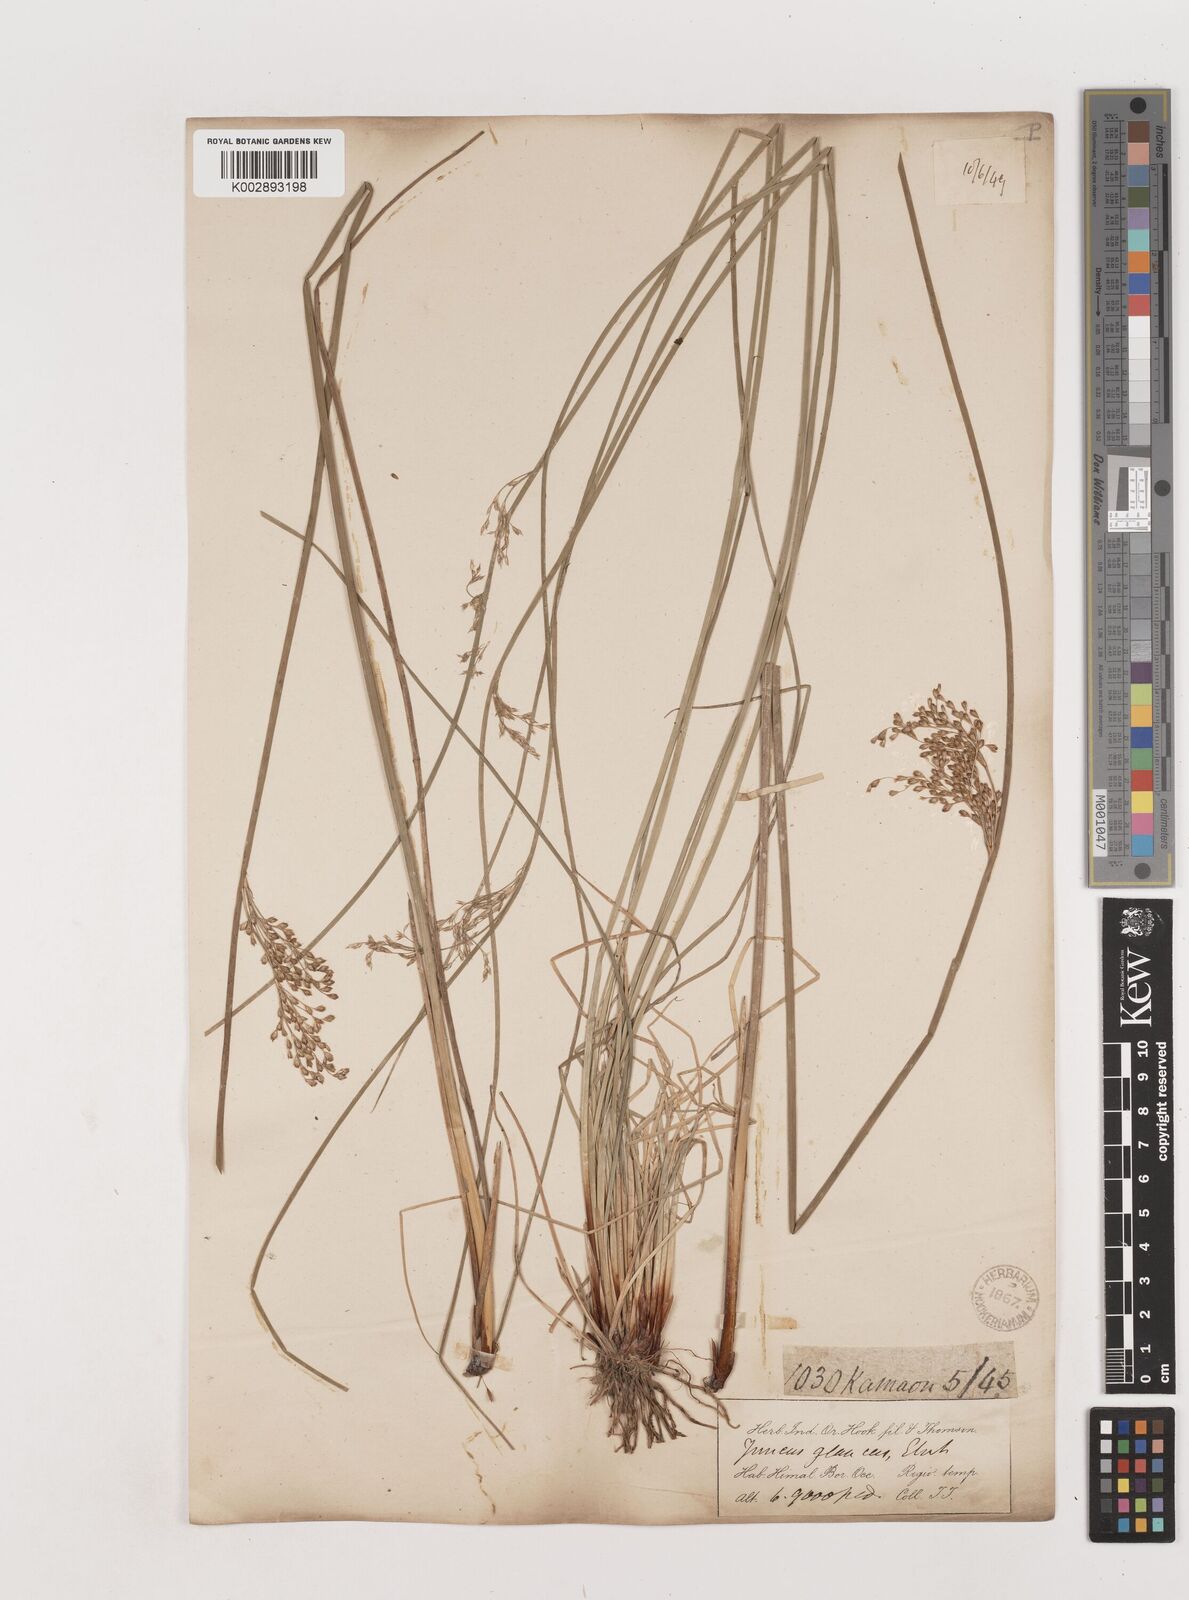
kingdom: Plantae
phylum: Tracheophyta
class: Liliopsida
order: Poales
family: Juncaceae
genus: Juncus
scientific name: Juncus inflexus
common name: Hard rush
